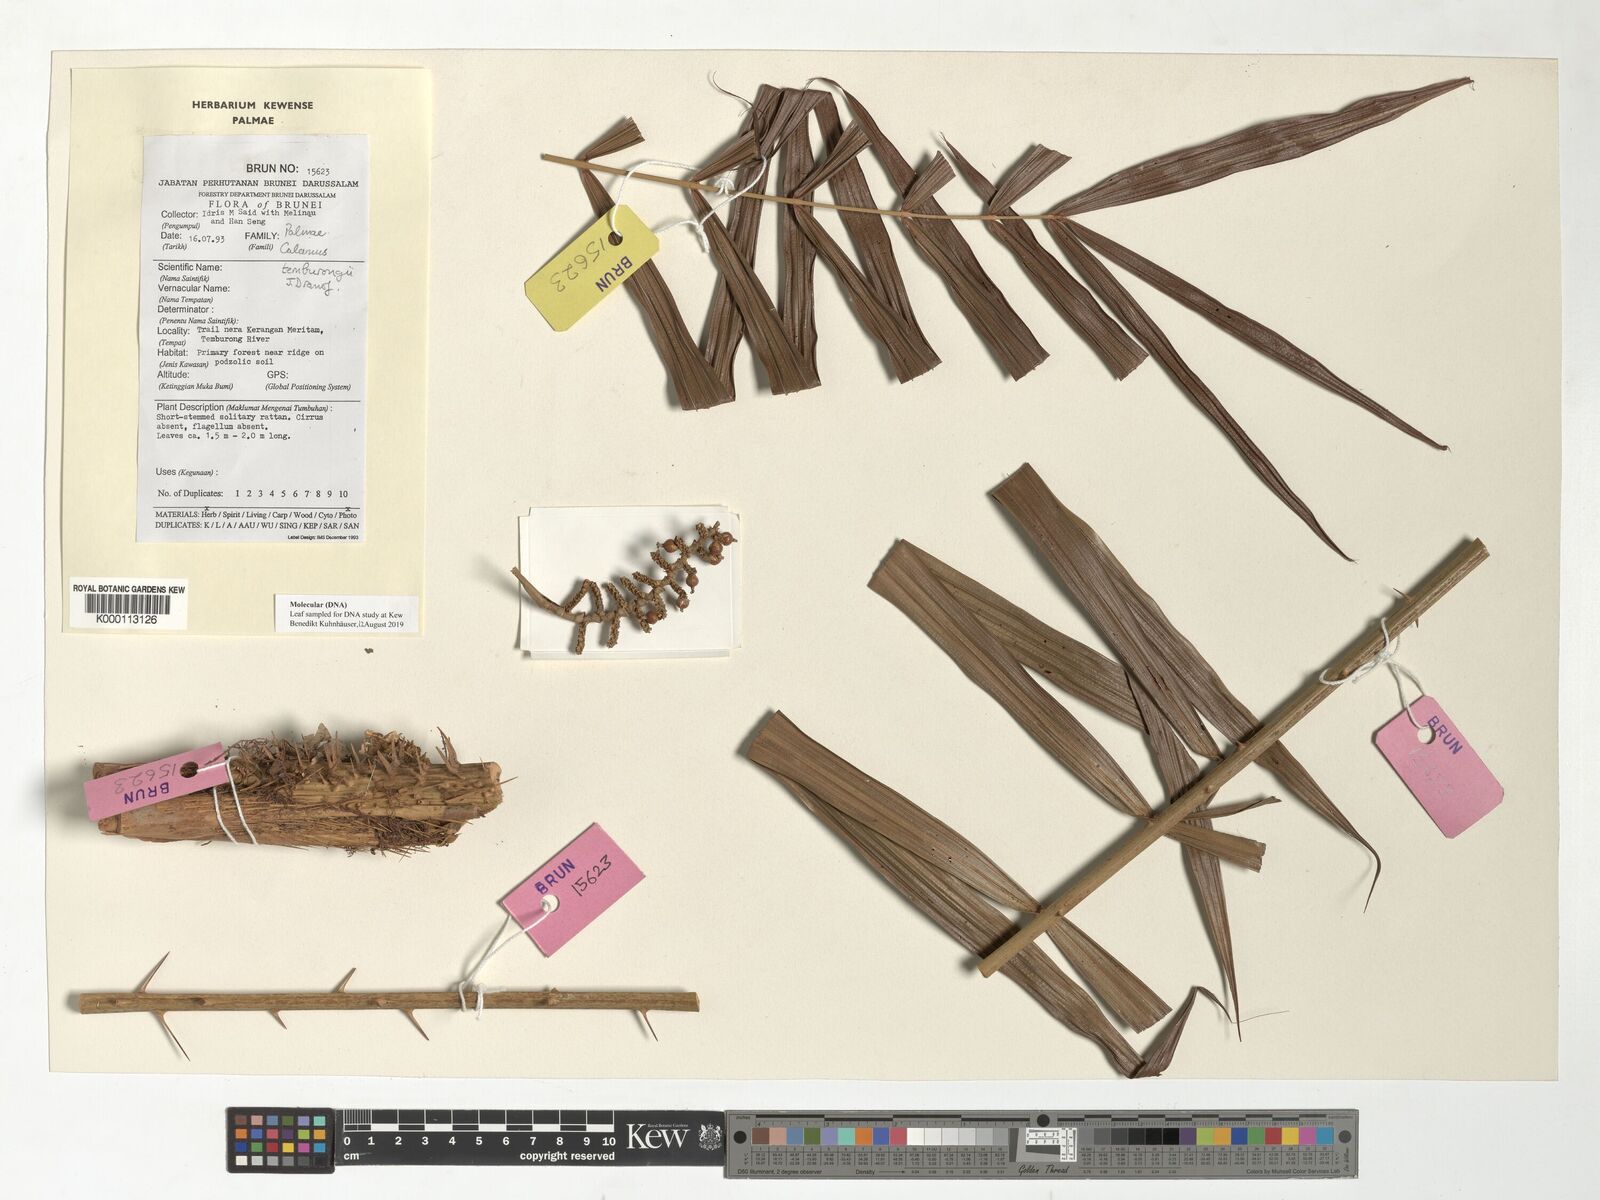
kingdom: Plantae
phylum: Tracheophyta
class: Liliopsida
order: Arecales
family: Arecaceae
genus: Calamus
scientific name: Calamus acanthochlamys
